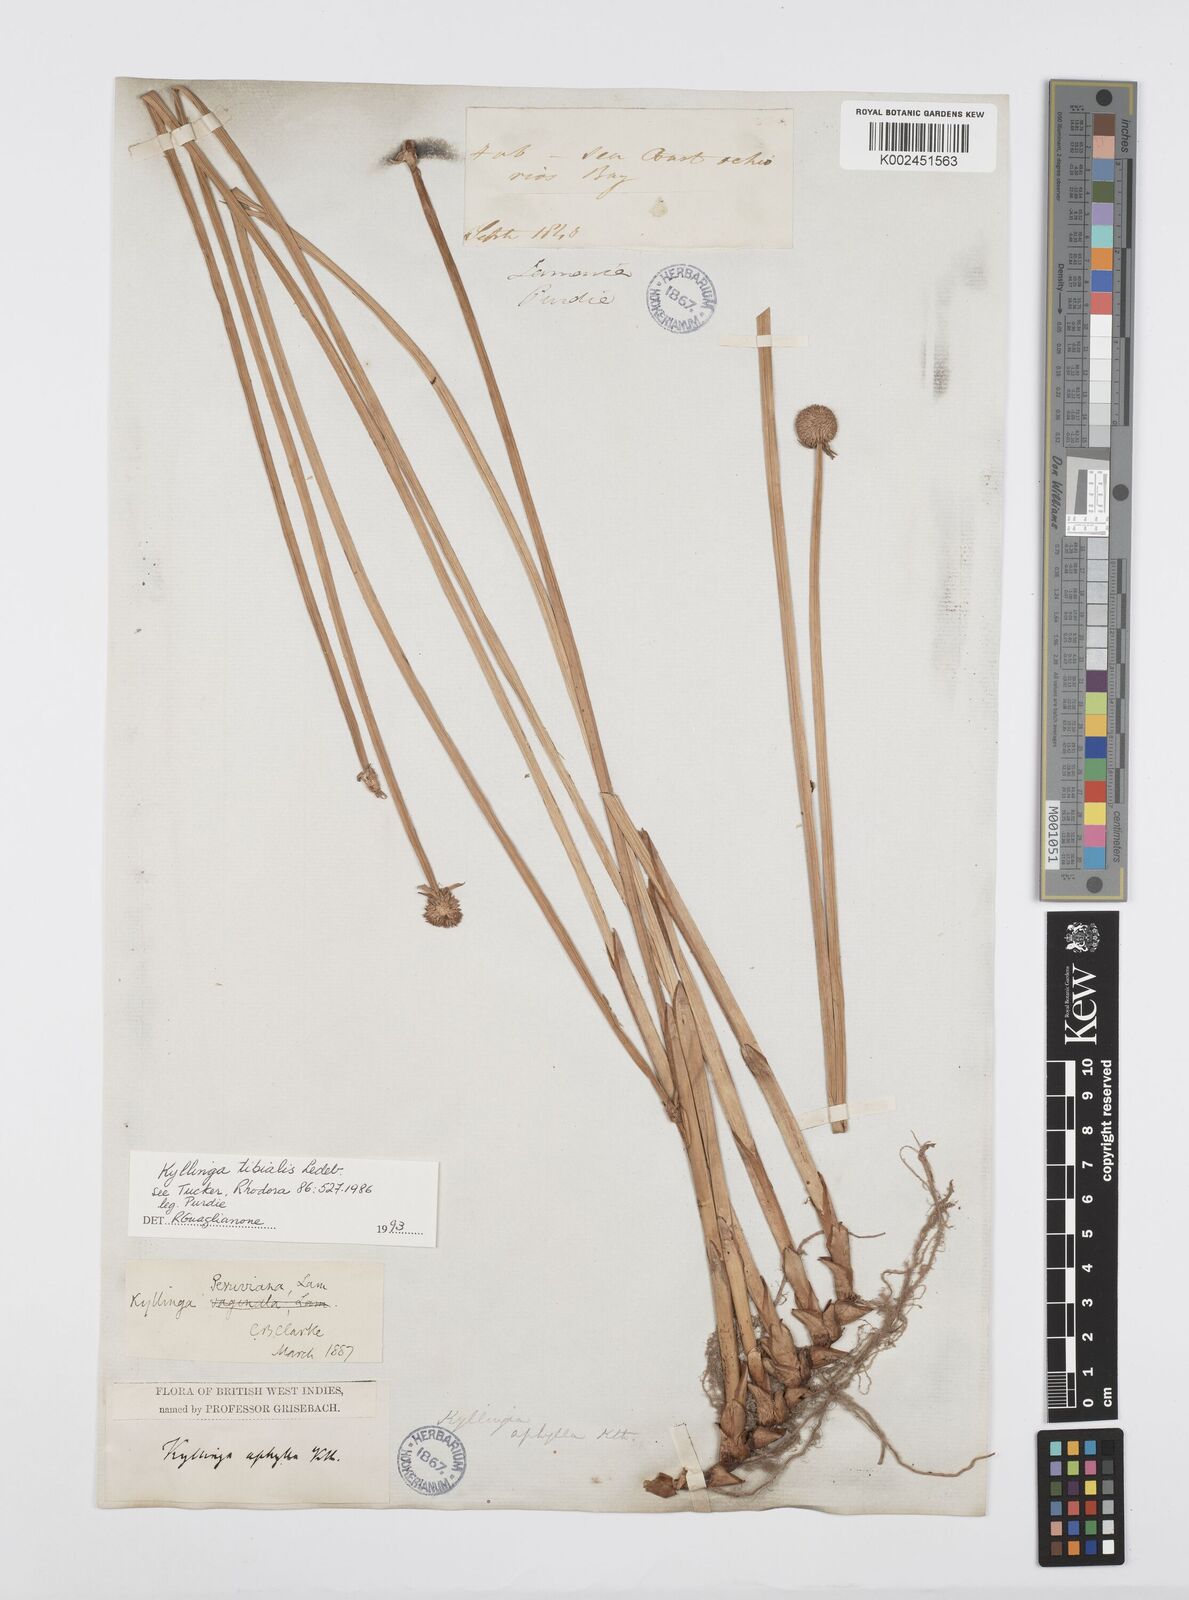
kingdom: Plantae
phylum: Tracheophyta
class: Liliopsida
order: Poales
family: Cyperaceae
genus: Cyperus
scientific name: Cyperus obtusatus
